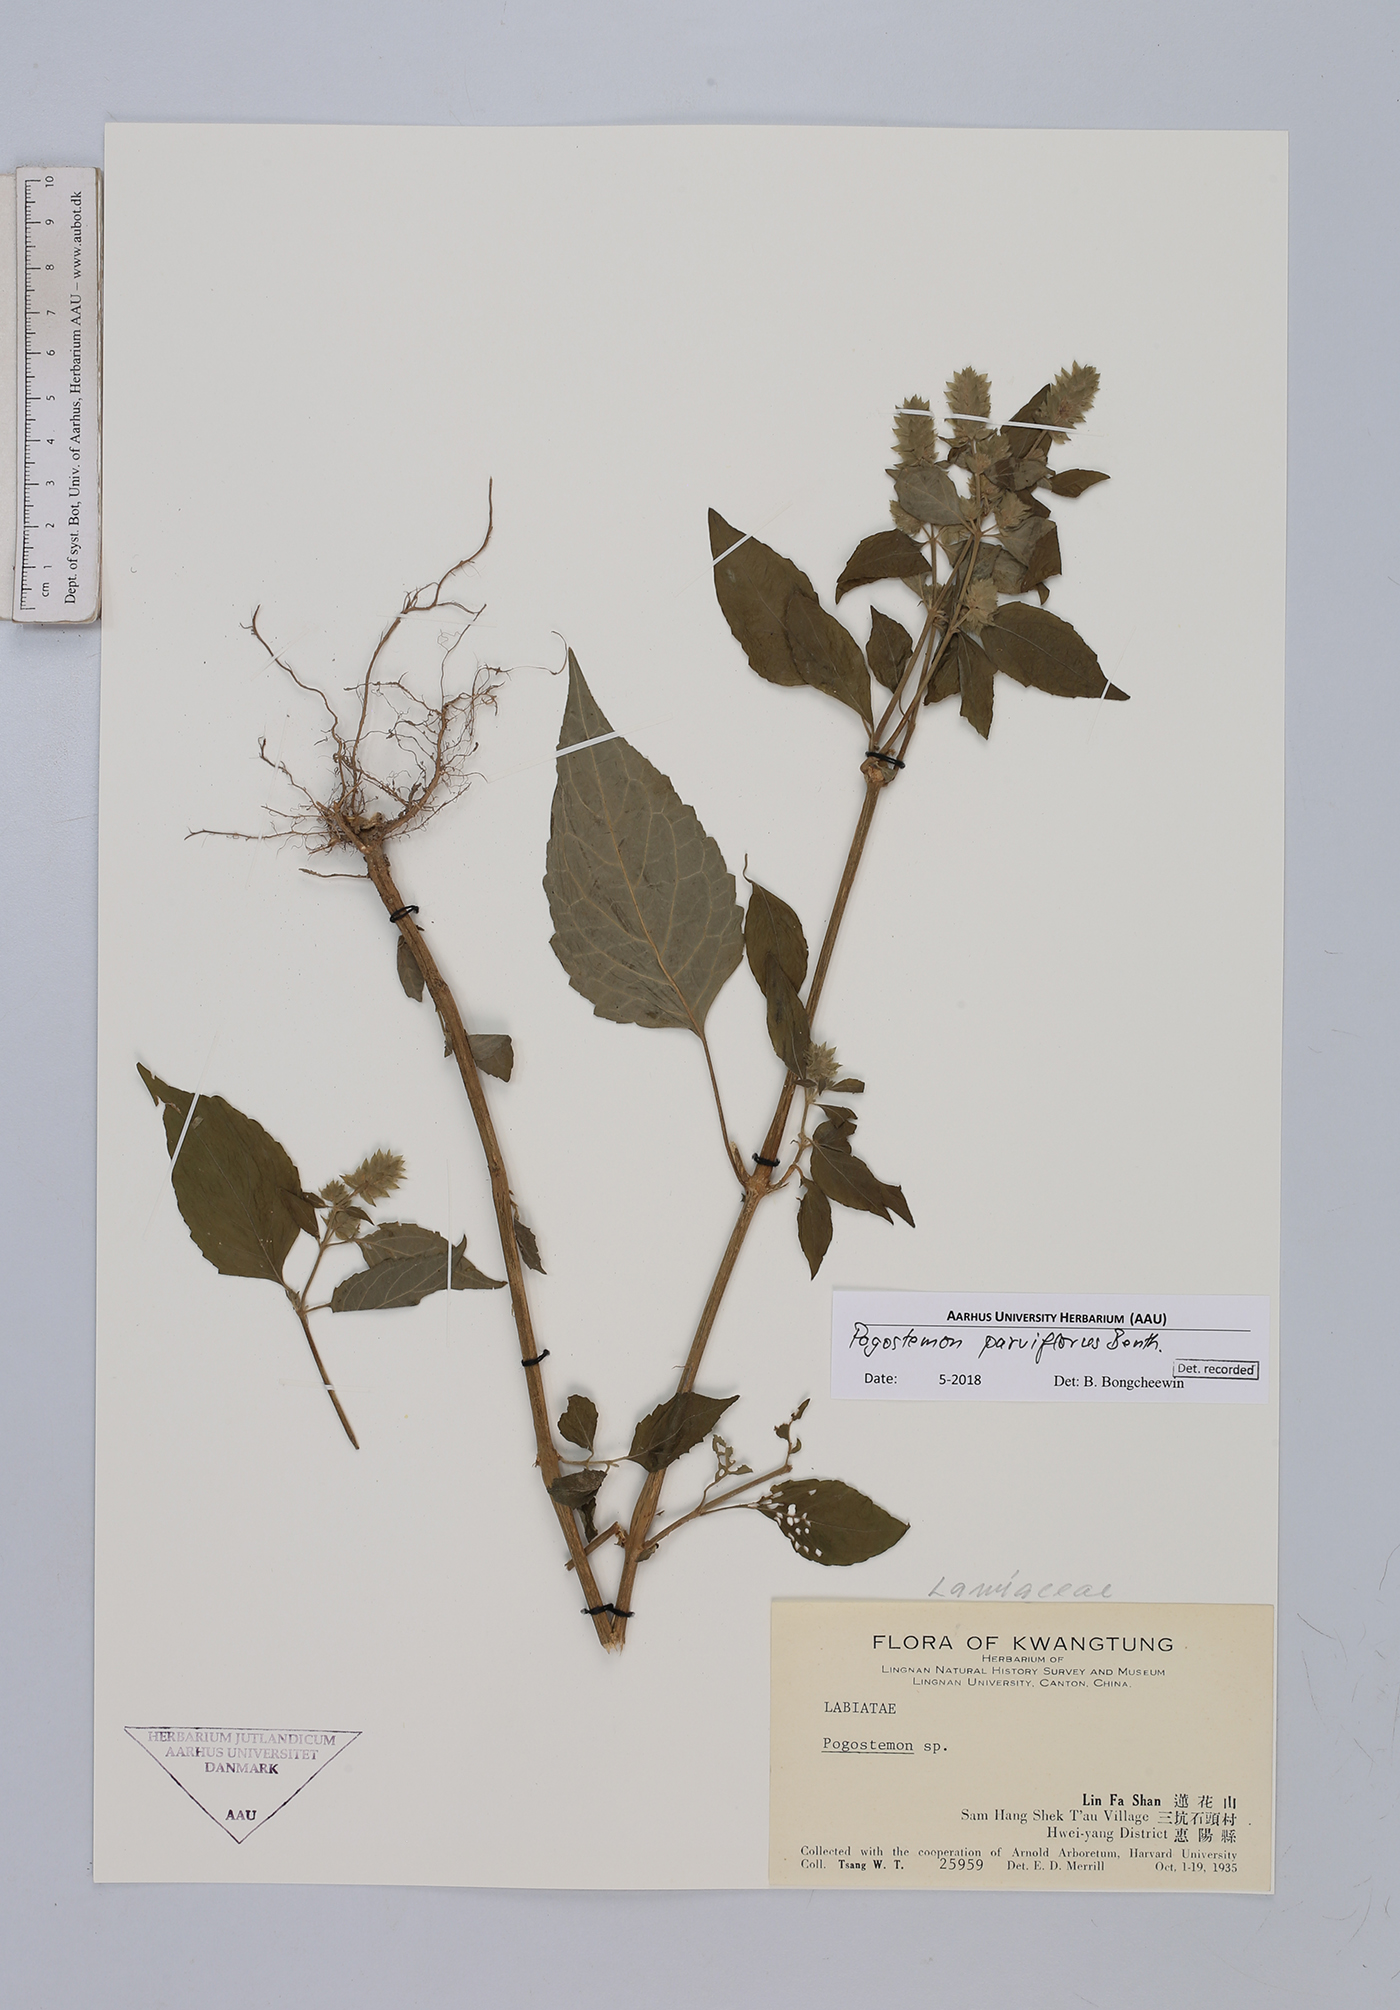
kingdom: Plantae
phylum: Tracheophyta
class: Magnoliopsida
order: Lamiales
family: Lamiaceae
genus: Pogostemon
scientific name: Pogostemon parviflorus
